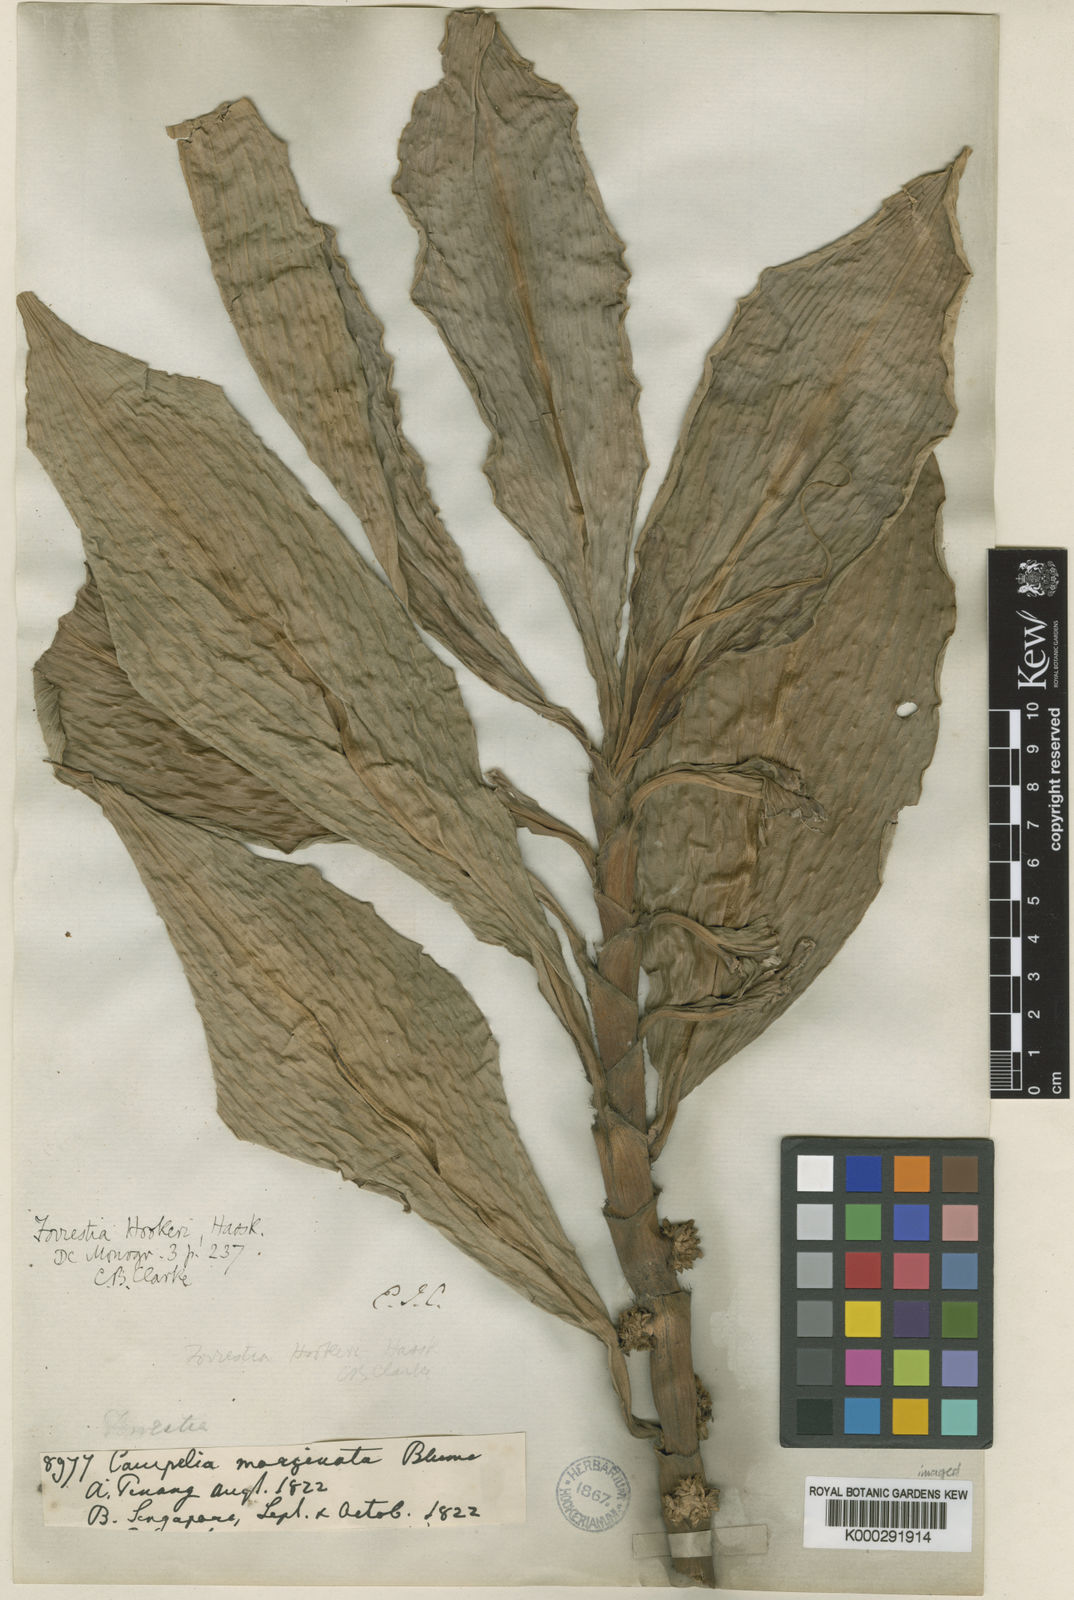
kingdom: Plantae
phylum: Tracheophyta
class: Liliopsida
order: Commelinales
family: Commelinaceae
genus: Amischotolype
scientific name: Amischotolype glabrata
